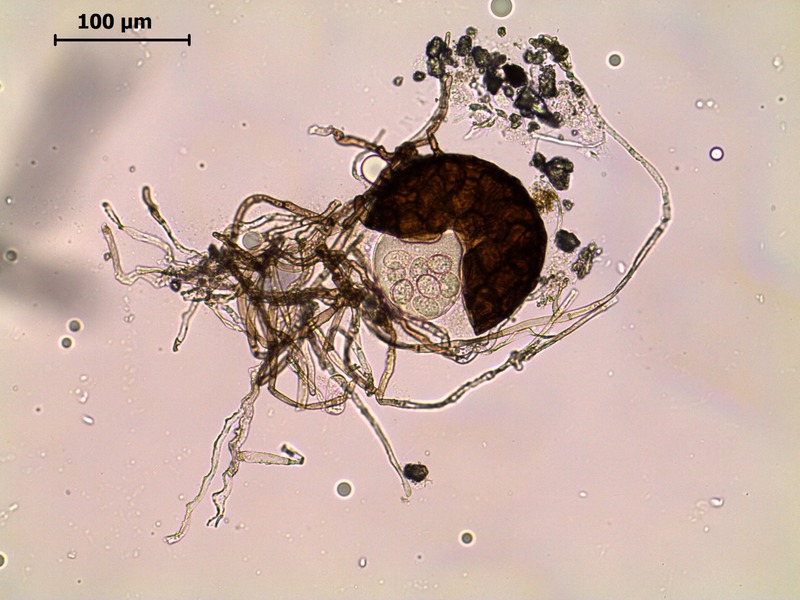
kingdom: Fungi
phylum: Ascomycota
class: Leotiomycetes
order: Helotiales
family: Erysiphaceae
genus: Podosphaera
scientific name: Podosphaera balsaminae
